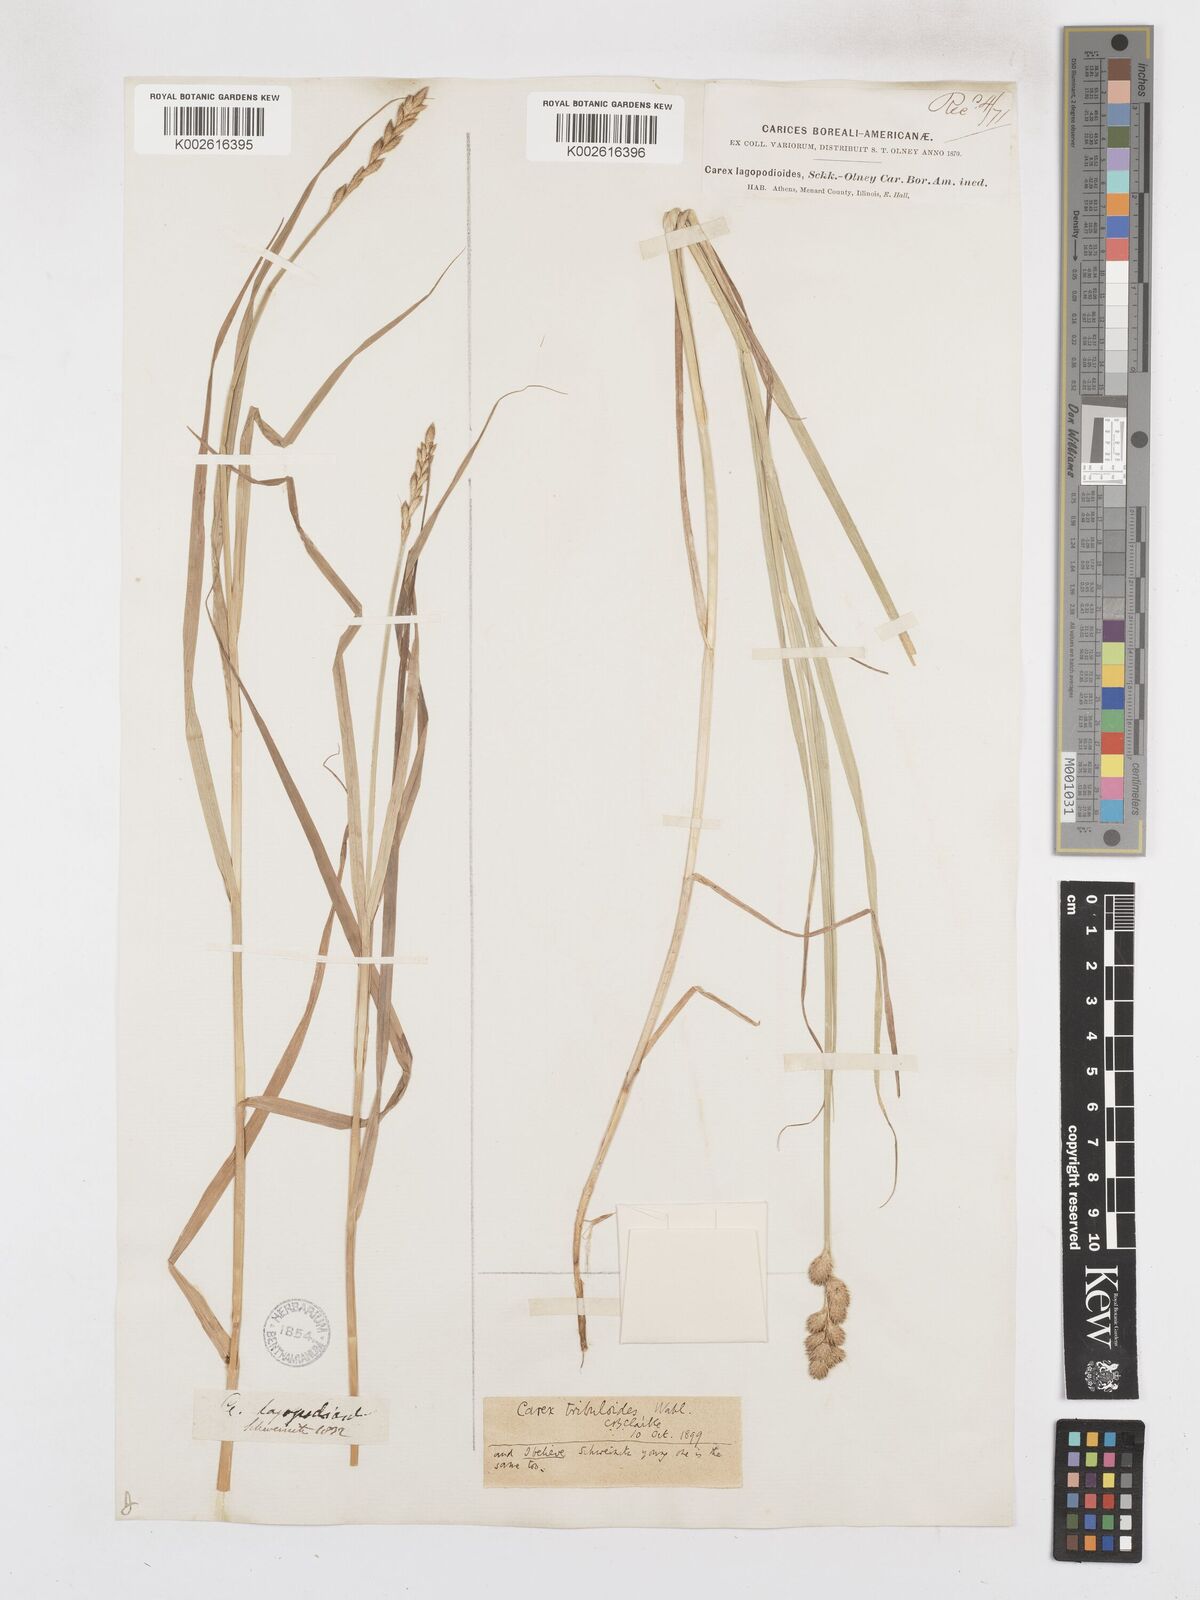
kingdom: Plantae
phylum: Tracheophyta
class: Liliopsida
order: Poales
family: Cyperaceae
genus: Carex
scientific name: Carex tribuloides
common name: Blunt broom sedge
